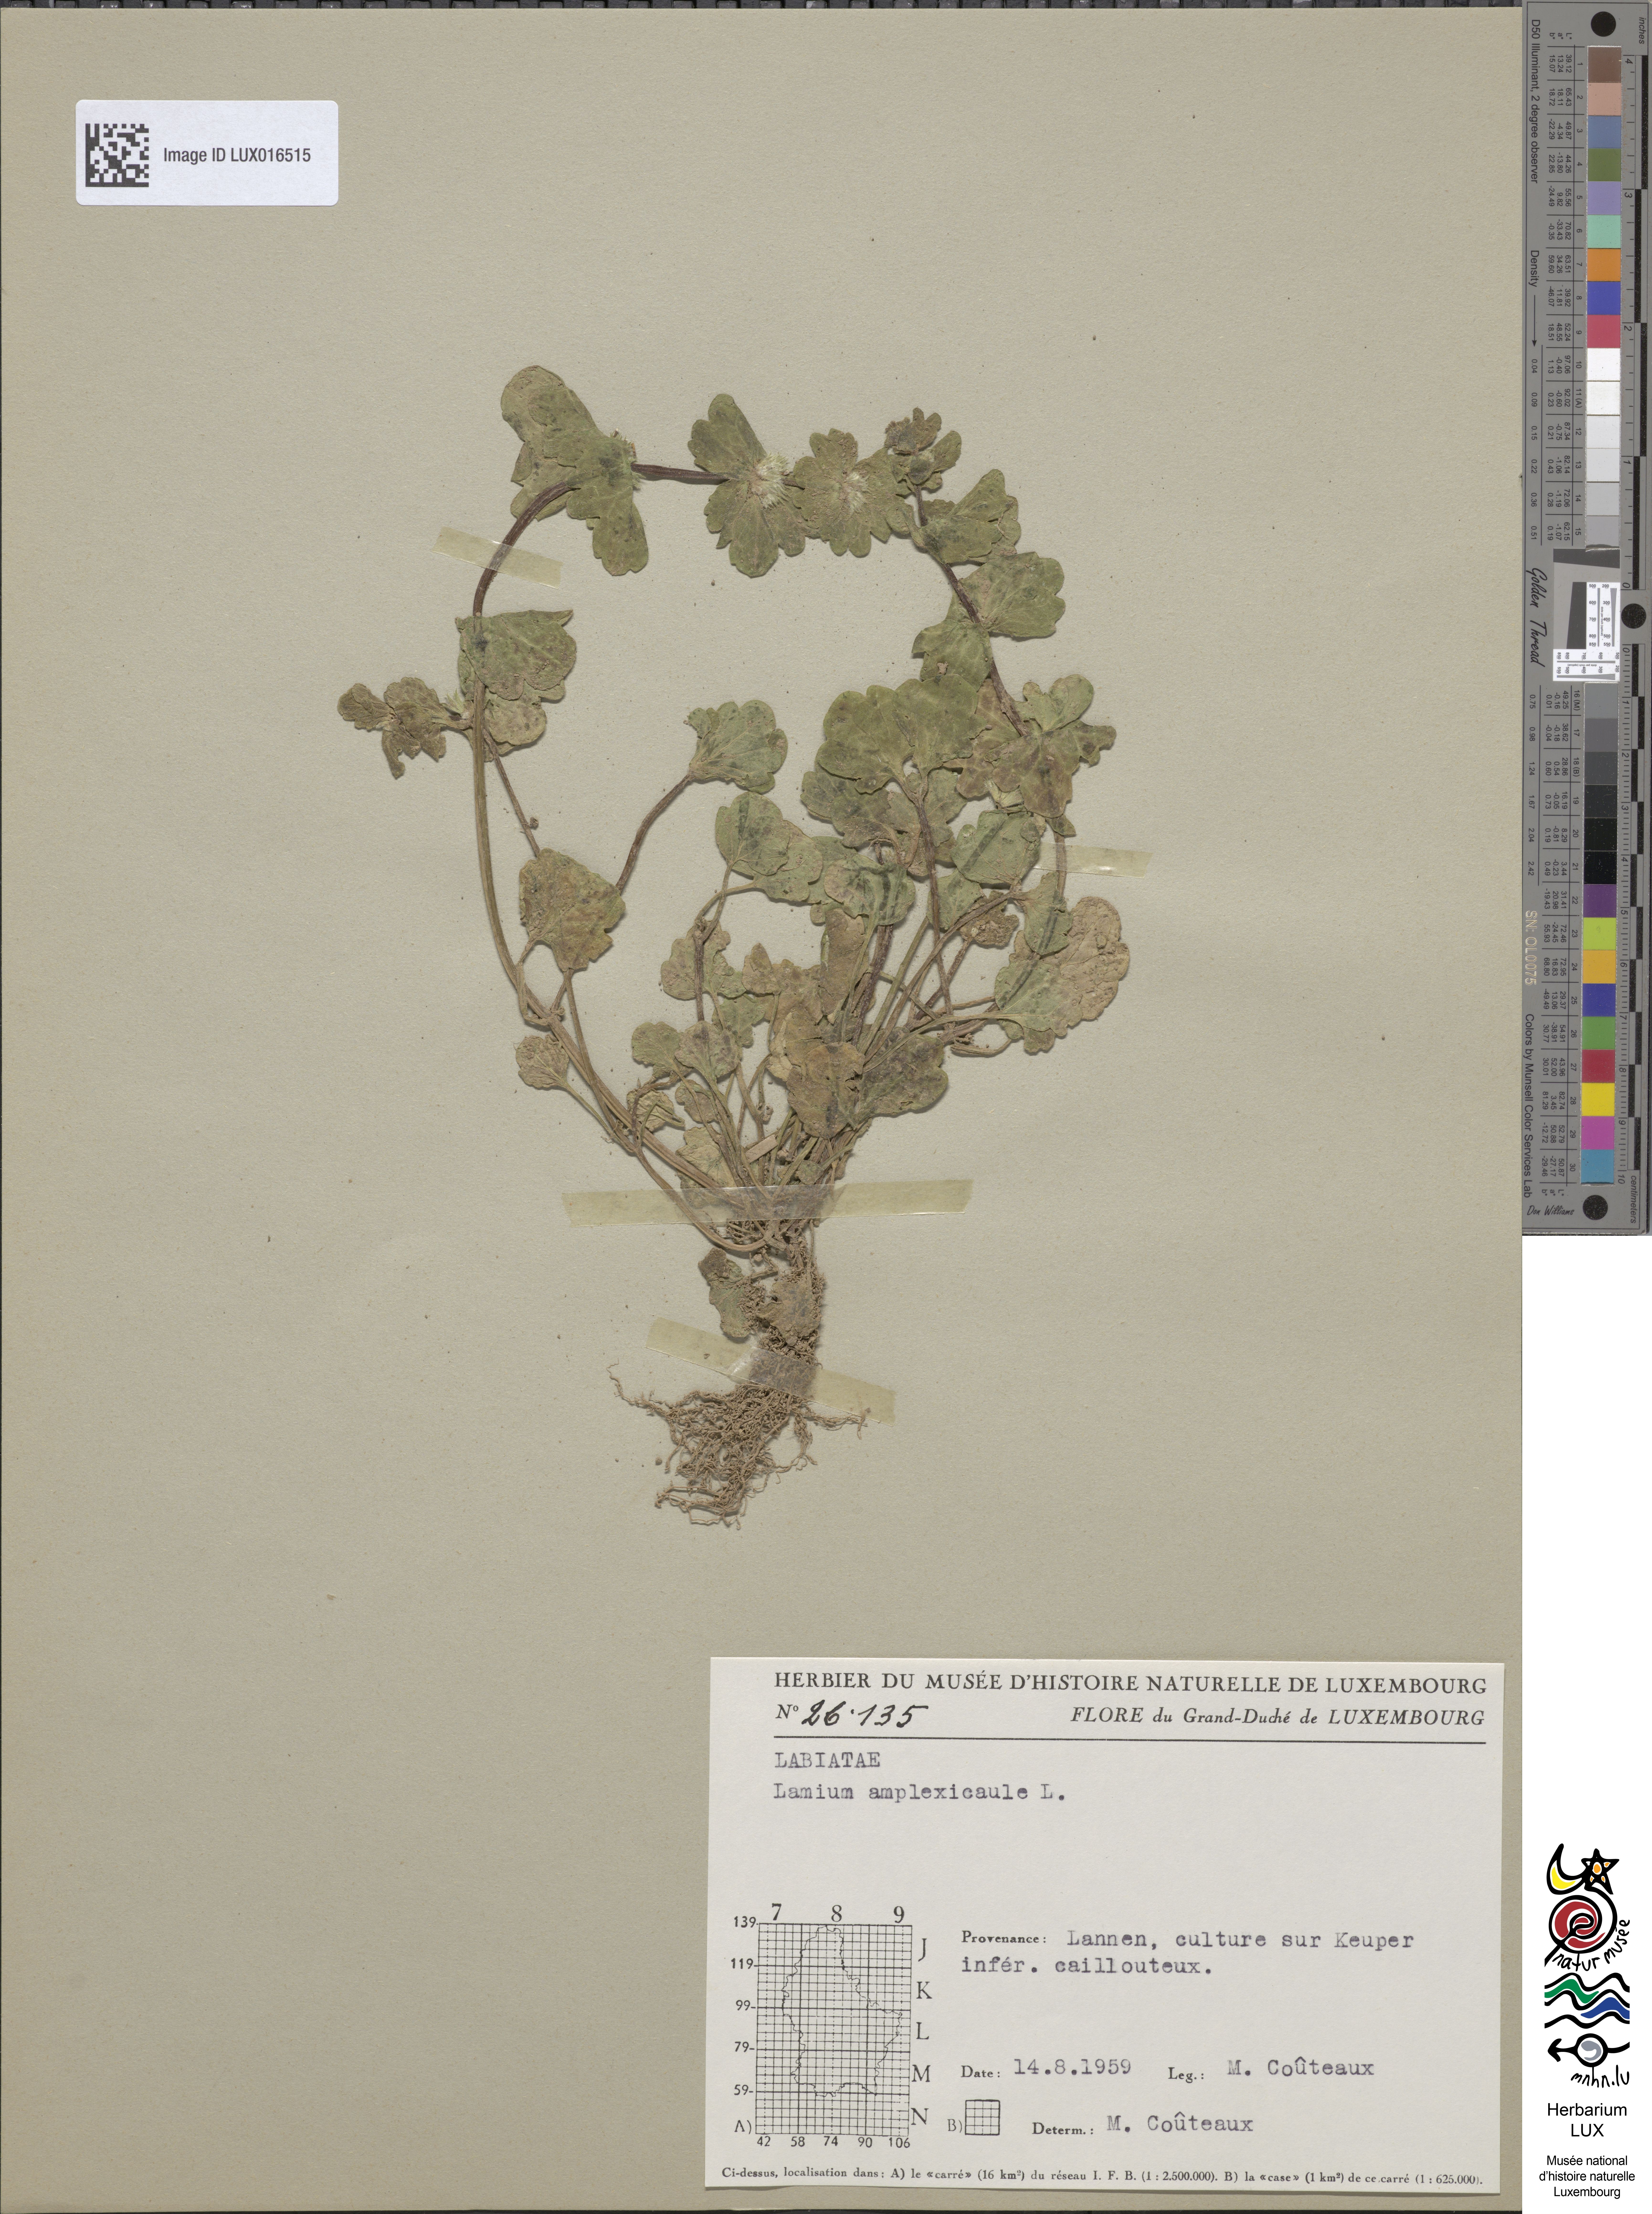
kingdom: Plantae
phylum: Tracheophyta
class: Magnoliopsida
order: Lamiales
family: Lamiaceae
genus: Lamium
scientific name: Lamium amplexicaule
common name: Henbit dead-nettle
